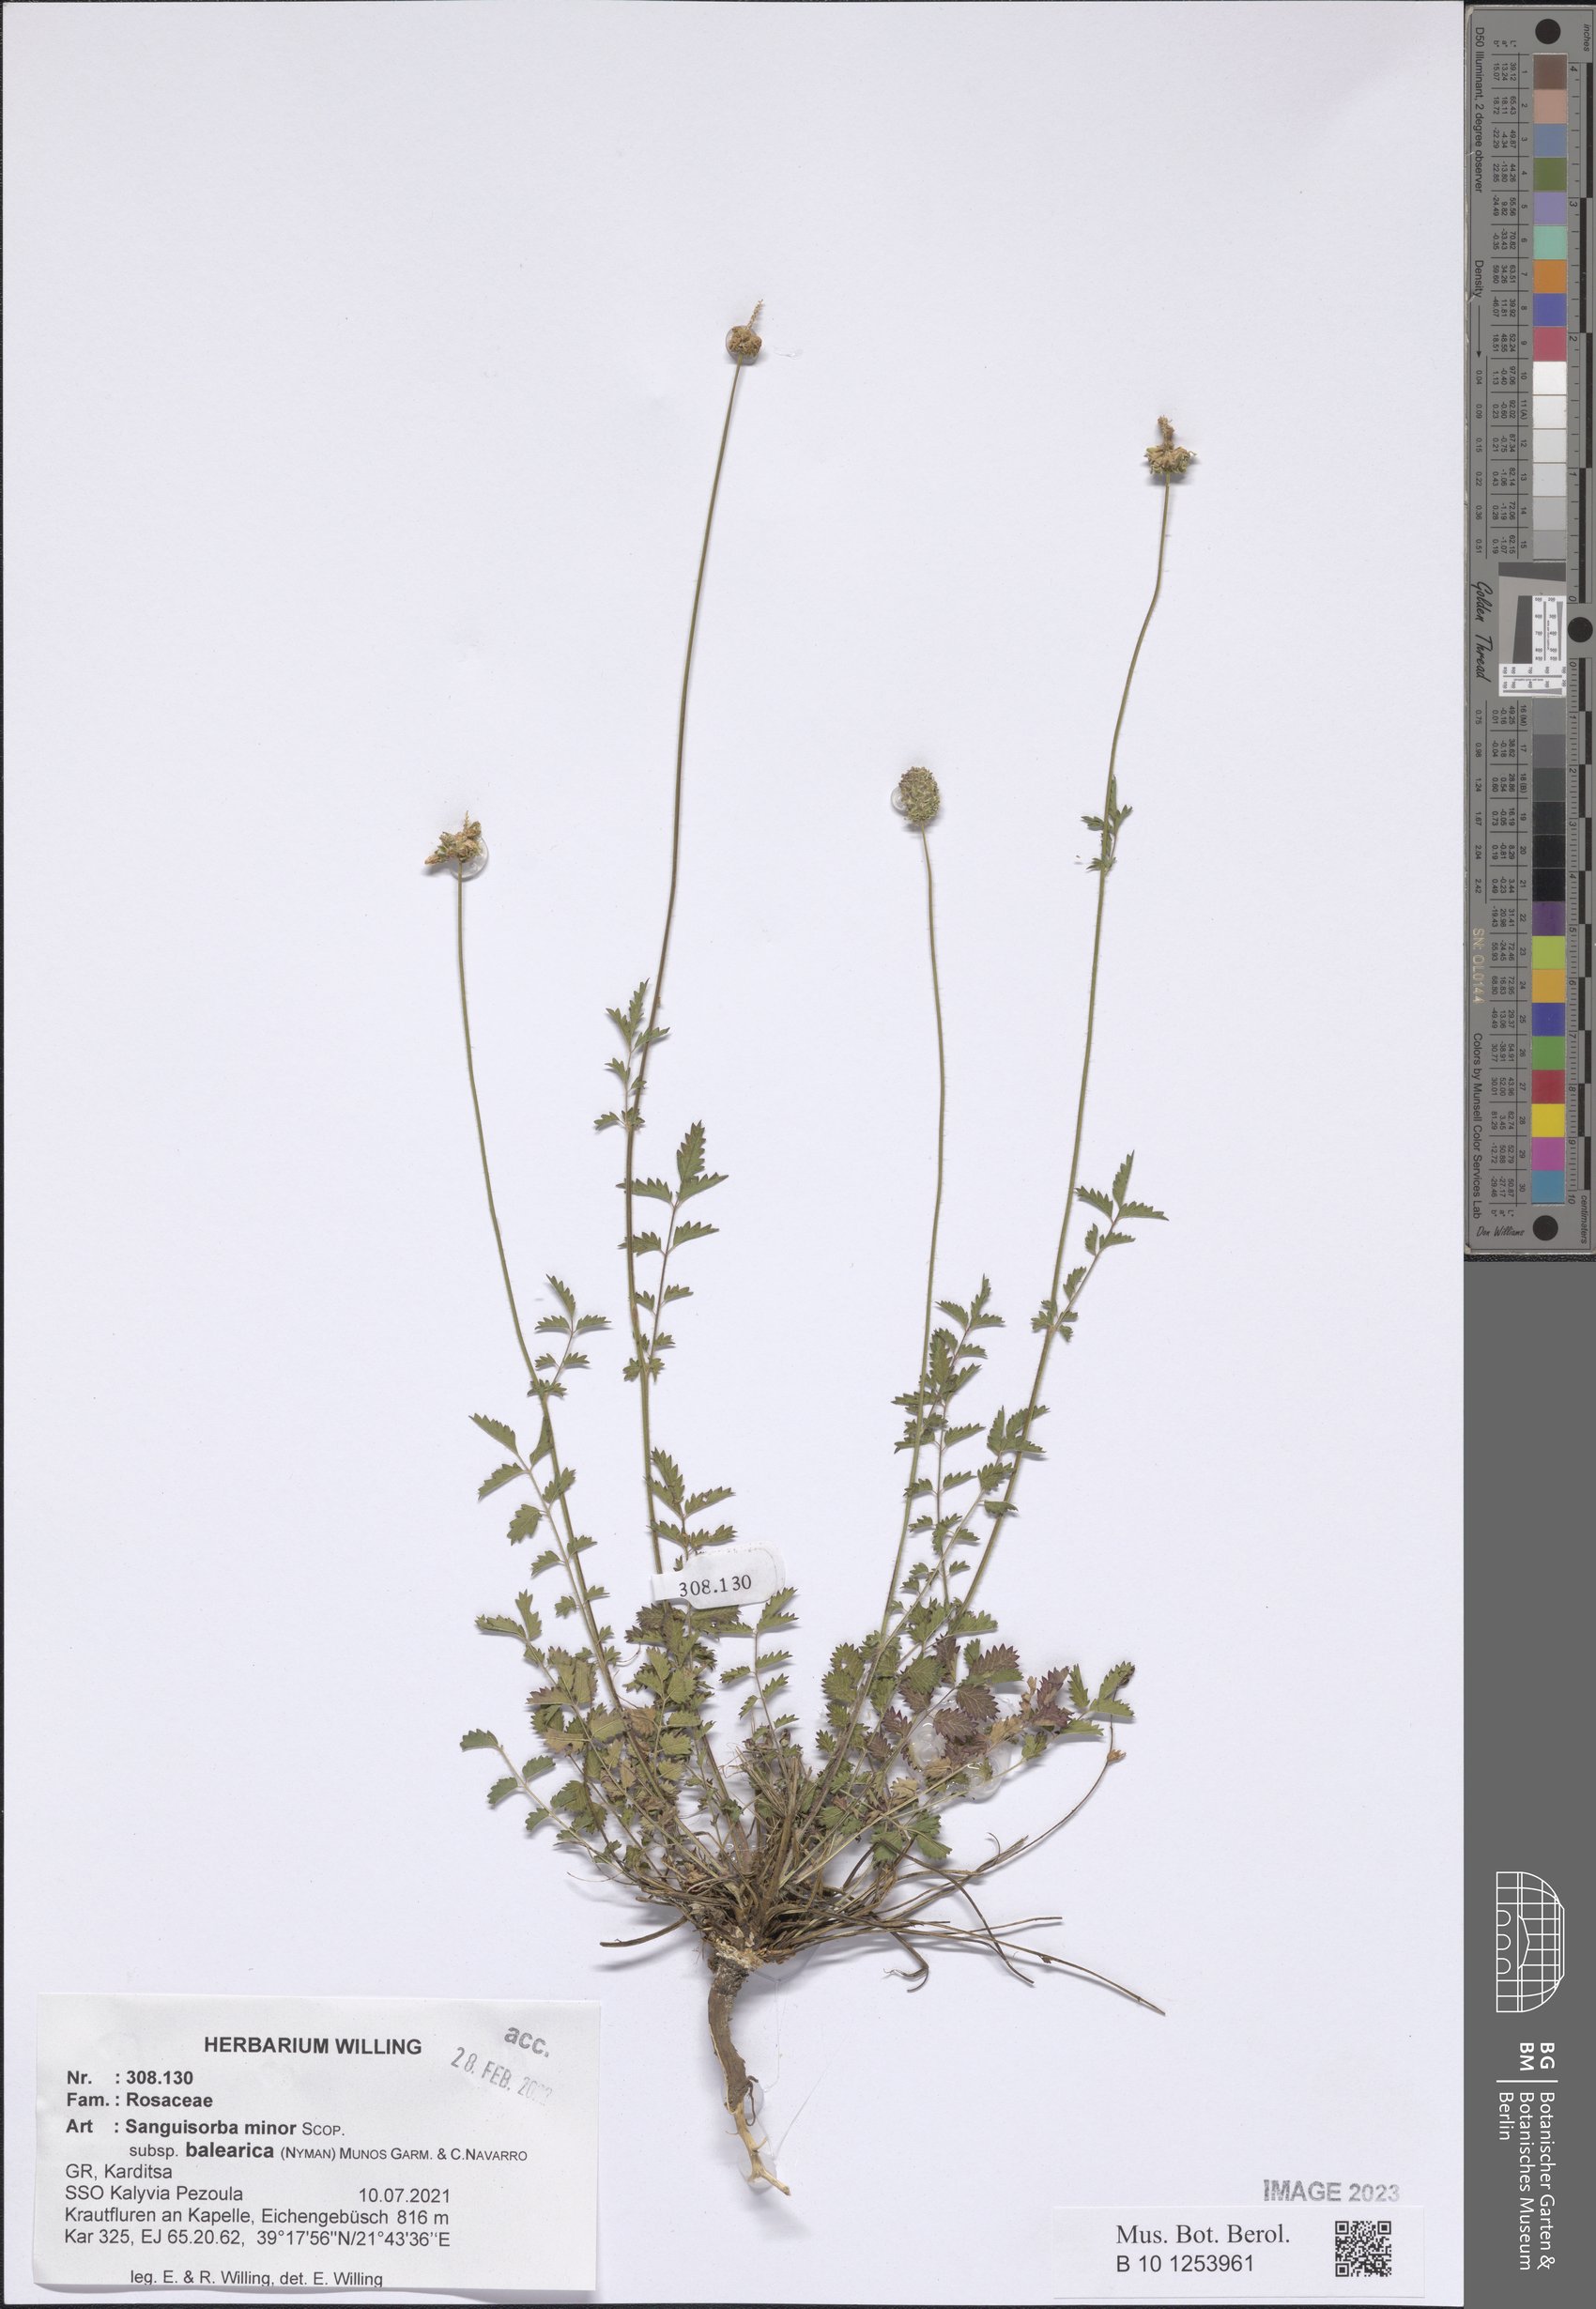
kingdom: Plantae
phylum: Tracheophyta
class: Magnoliopsida
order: Rosales
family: Rosaceae
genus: Poterium
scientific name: Poterium sanguisorba
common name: Salad burnet
